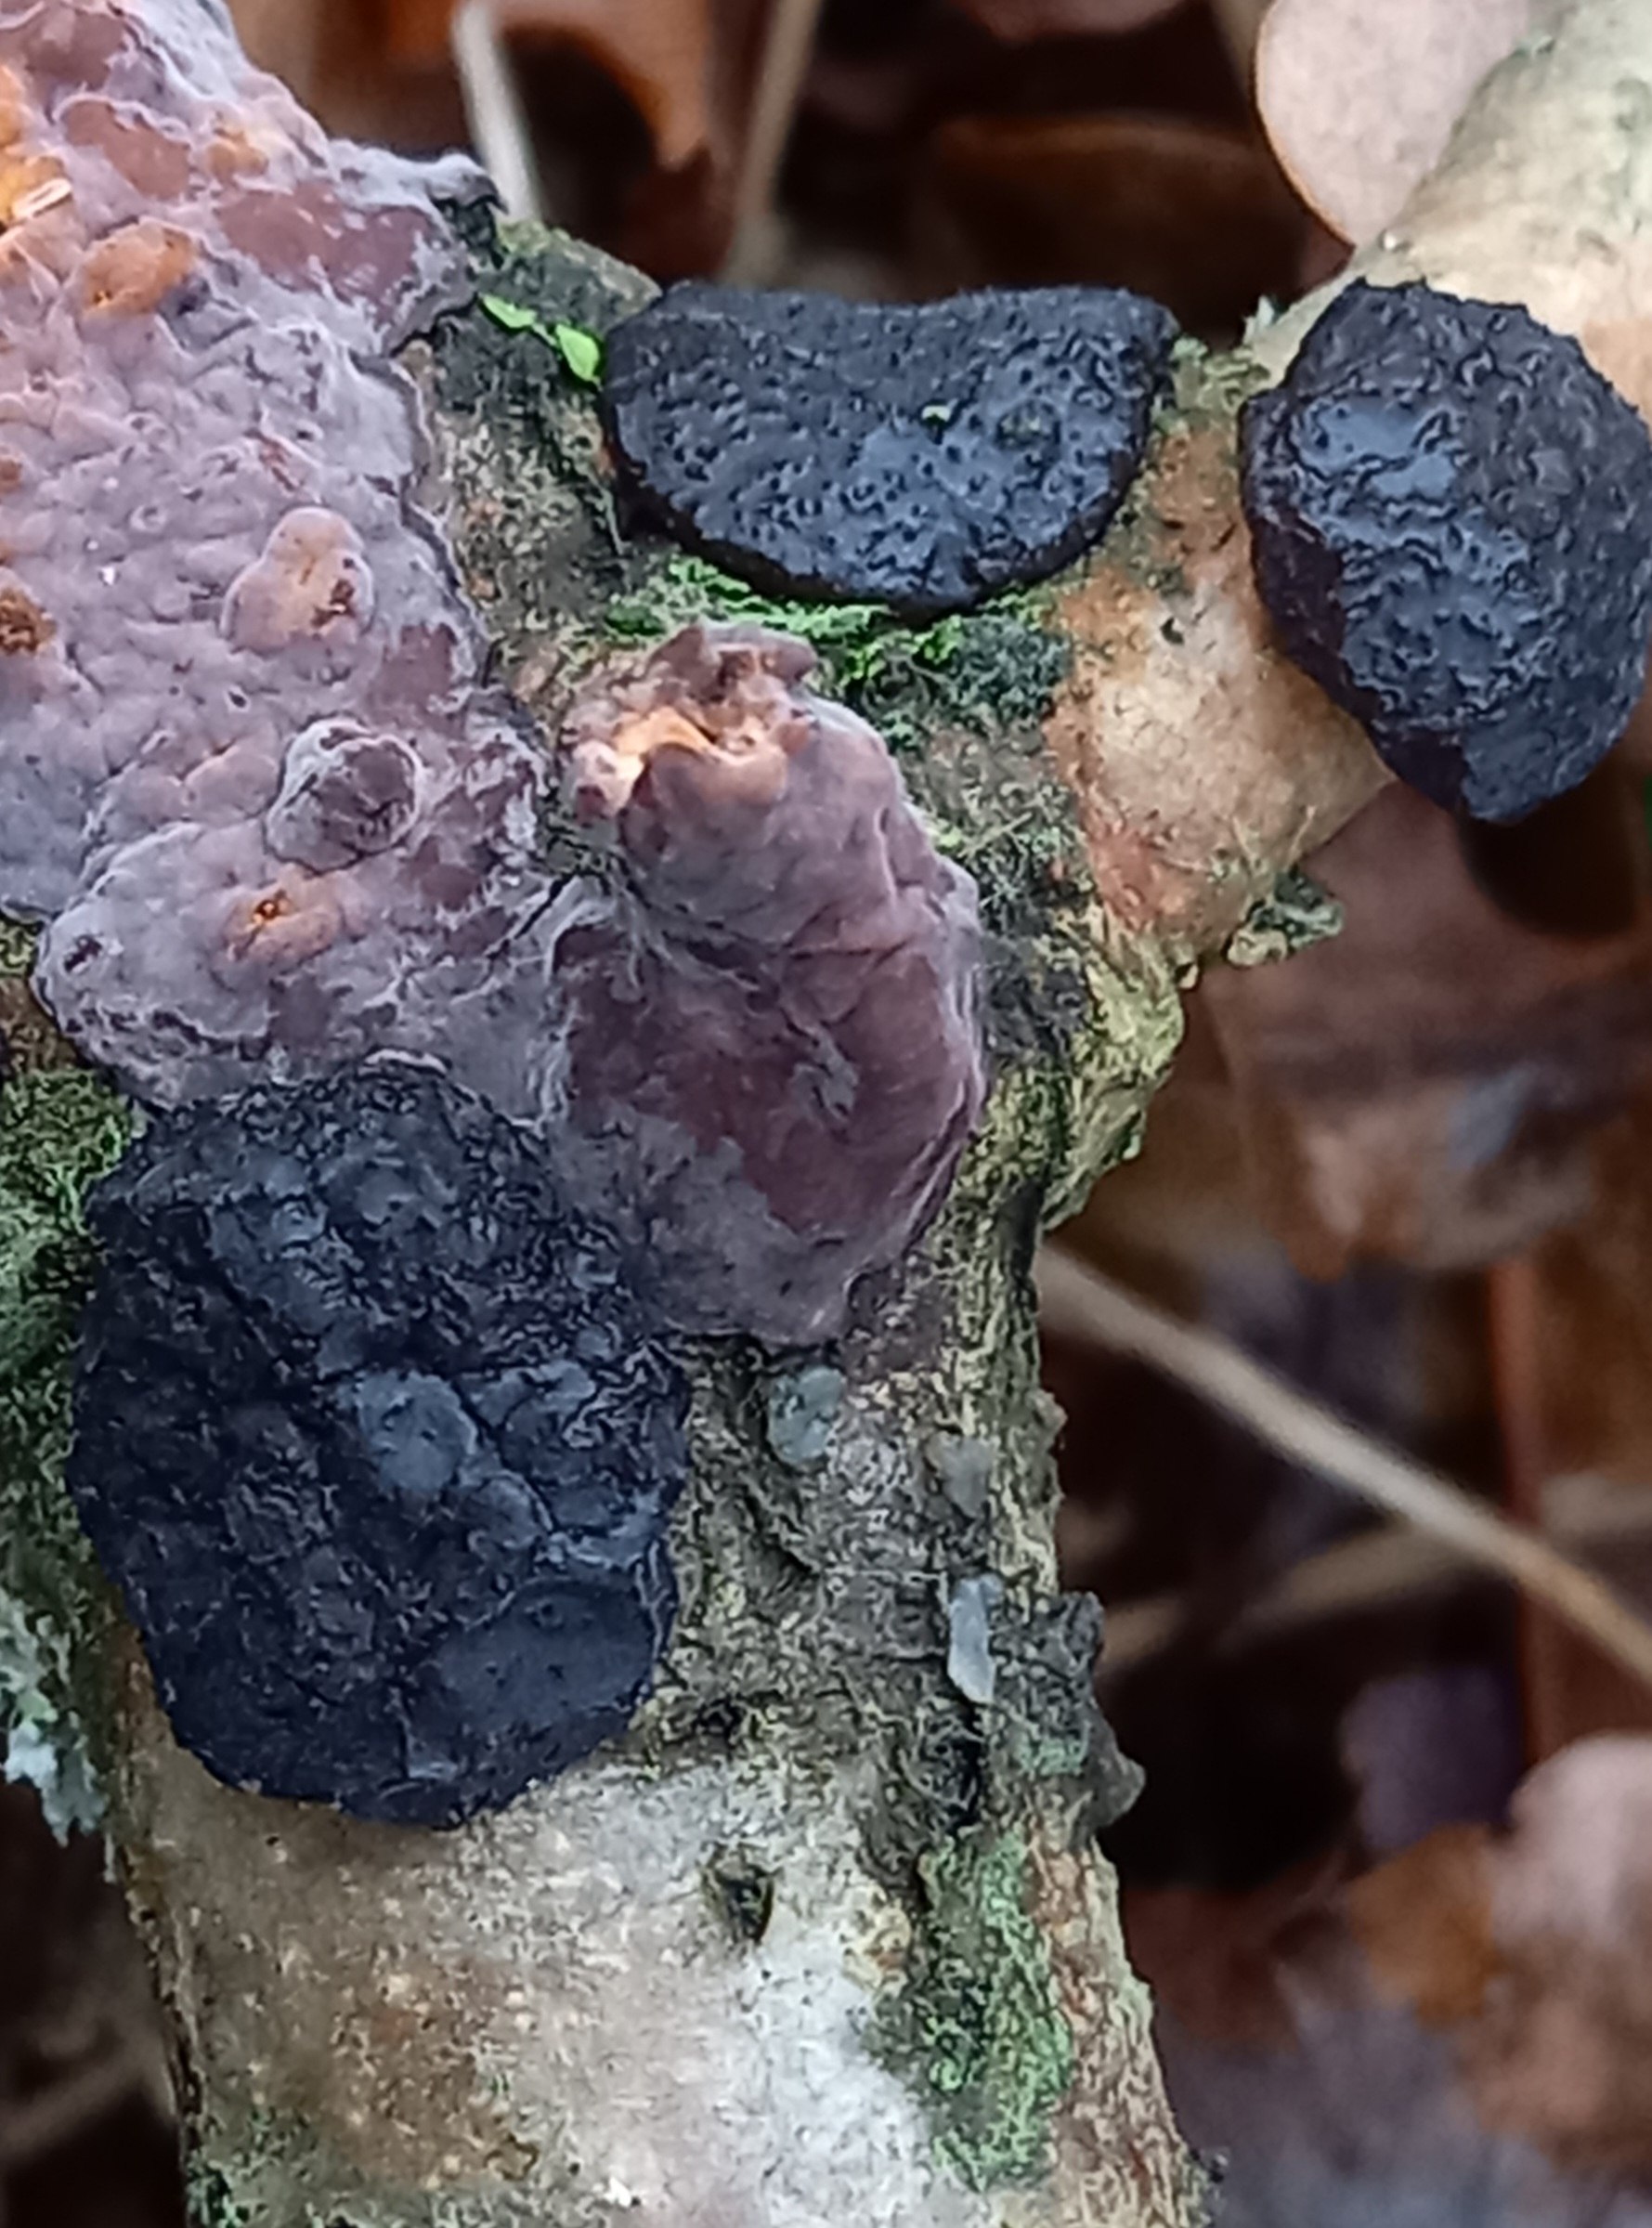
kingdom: Fungi
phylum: Basidiomycota
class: Agaricomycetes
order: Auriculariales
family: Auriculariaceae
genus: Exidia
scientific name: Exidia glandulosa
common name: ege-bævretop
